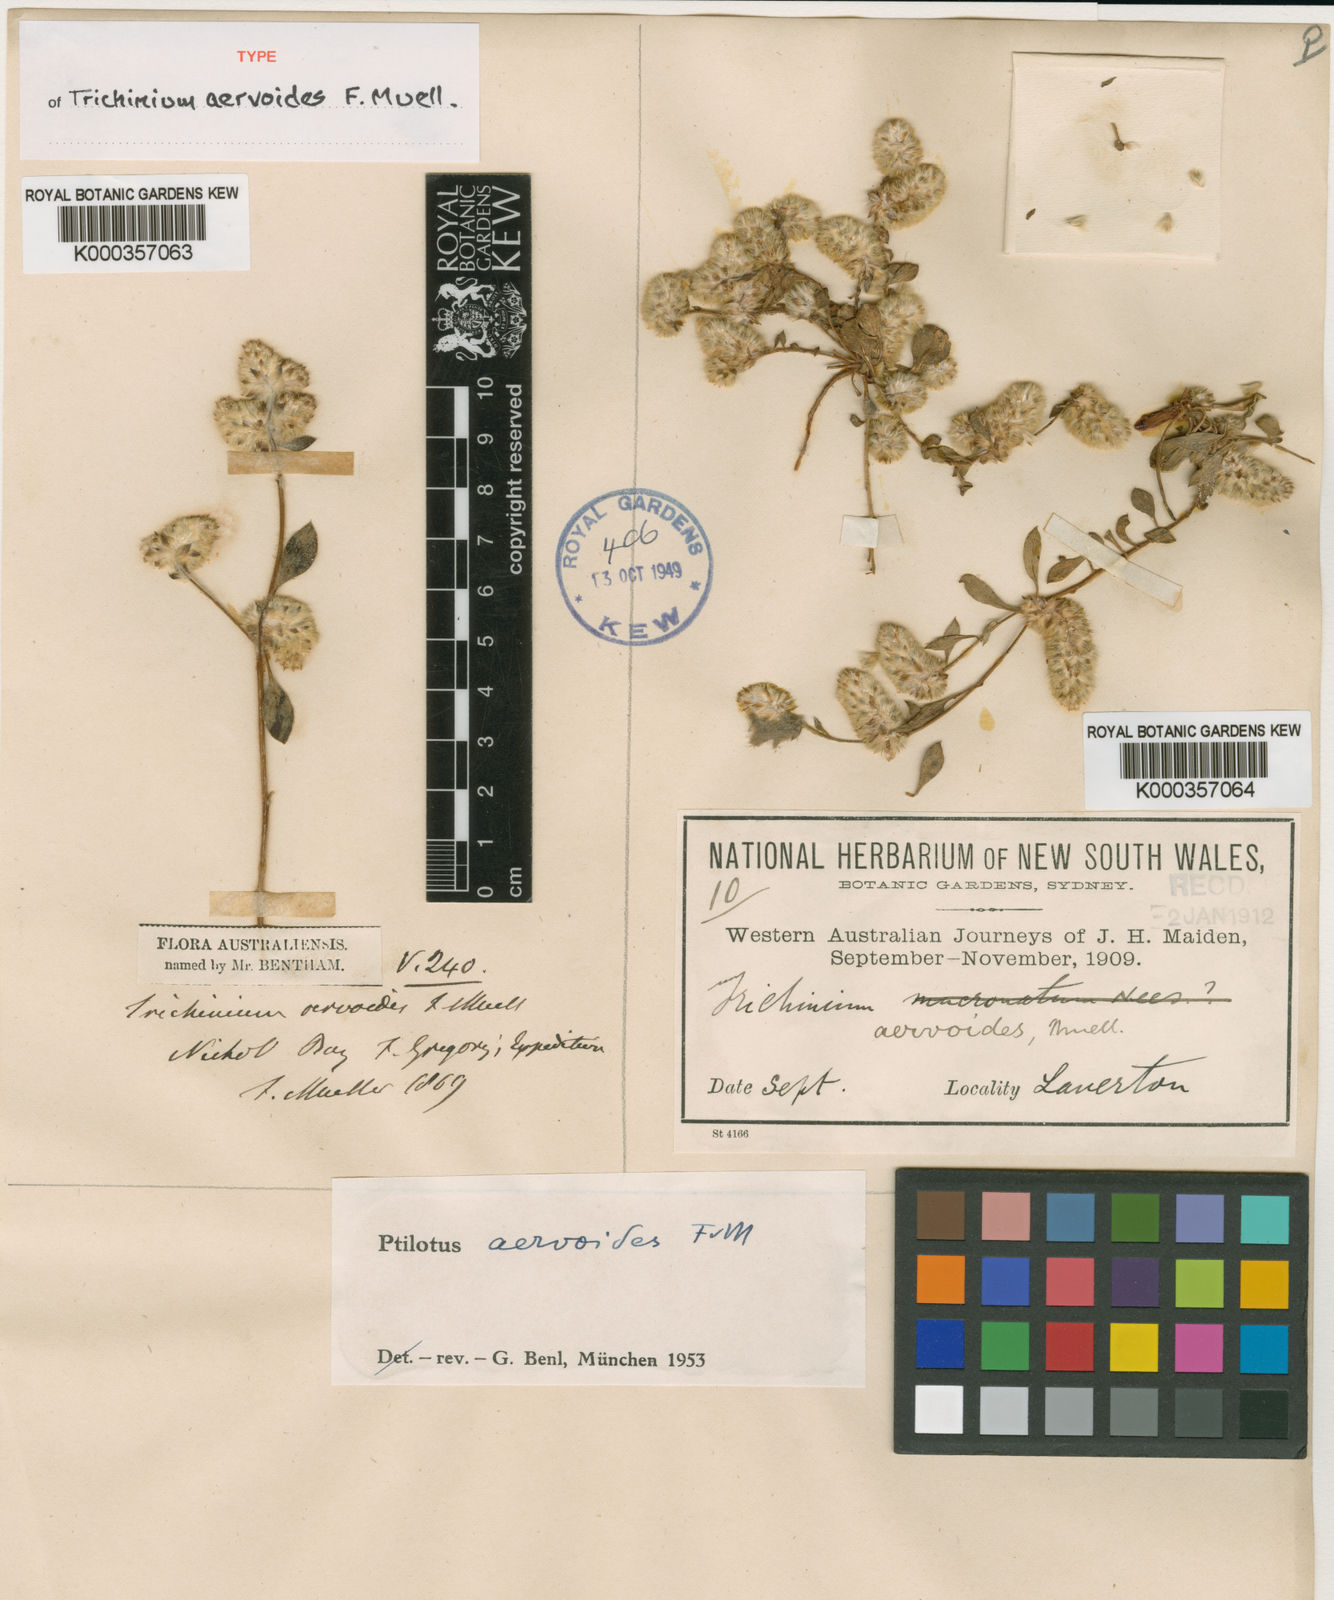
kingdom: Plantae
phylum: Tracheophyta
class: Magnoliopsida
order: Caryophyllales
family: Amaranthaceae
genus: Ptilotus
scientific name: Ptilotus aervoides
